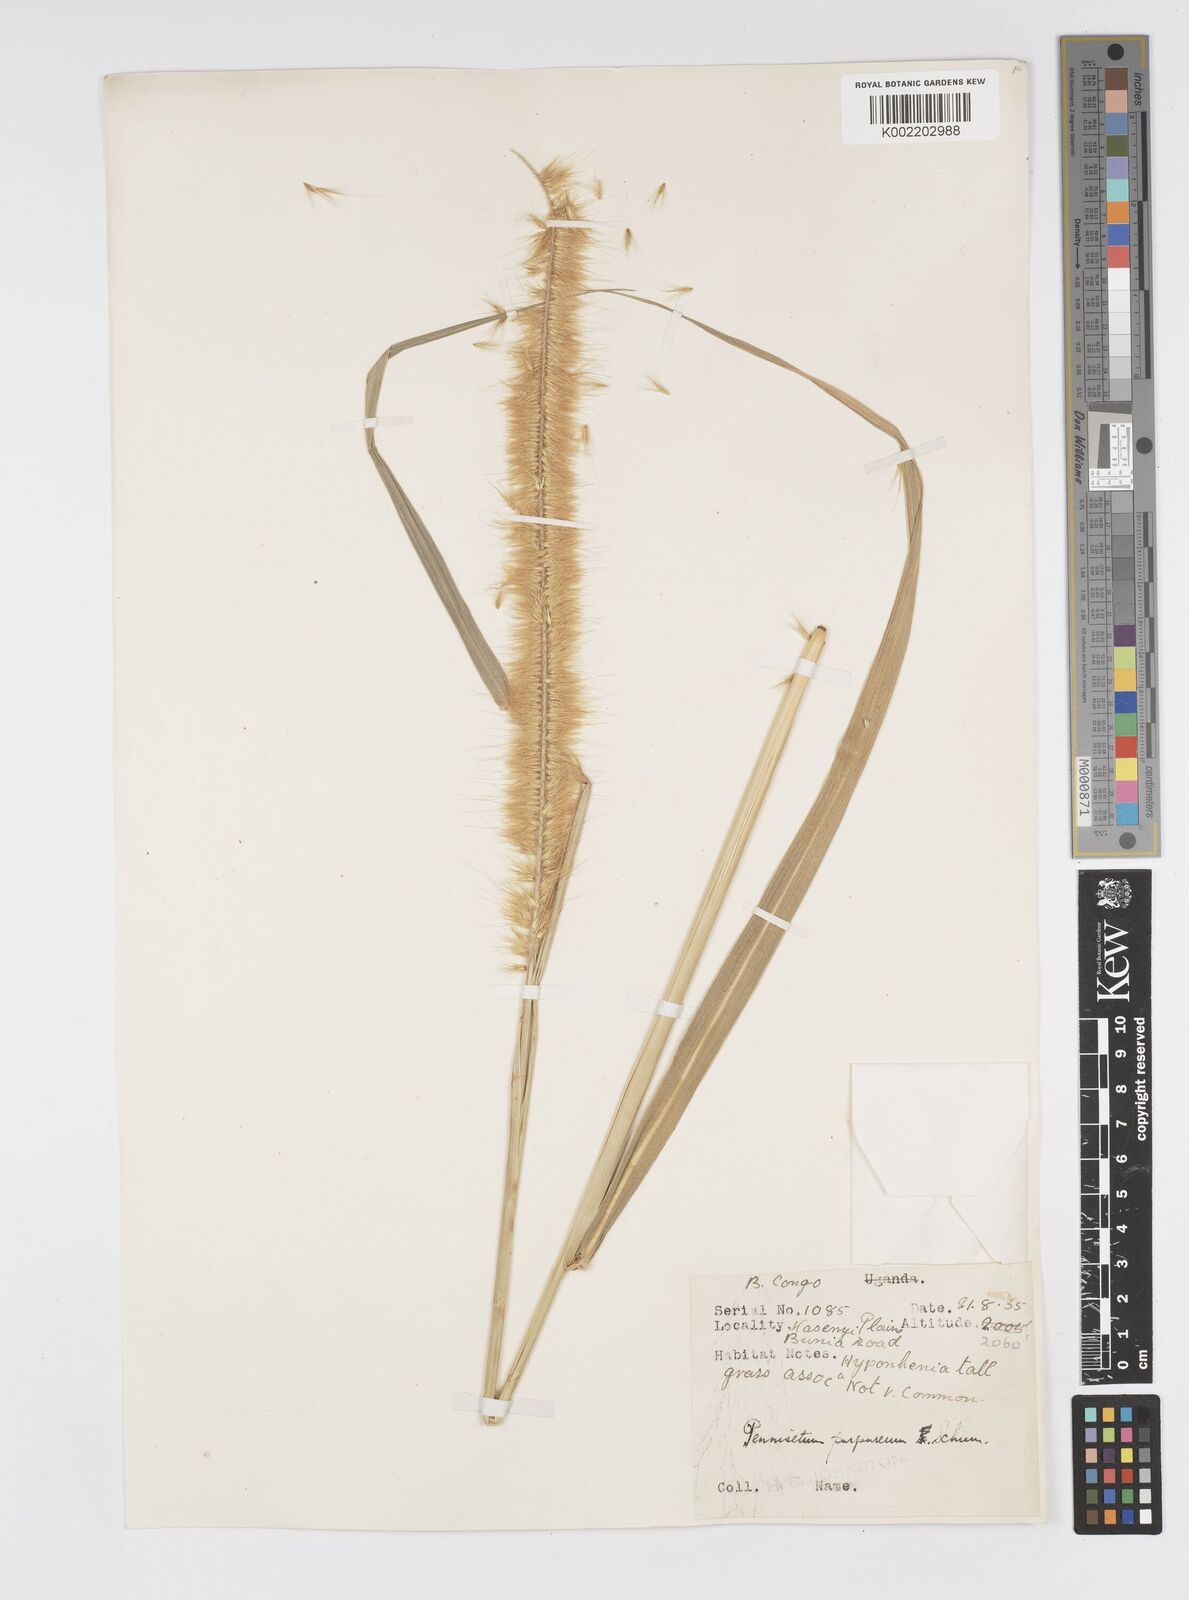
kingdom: Plantae
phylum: Tracheophyta
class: Liliopsida
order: Poales
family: Poaceae
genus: Cenchrus
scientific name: Cenchrus purpureus
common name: Elephant grass
